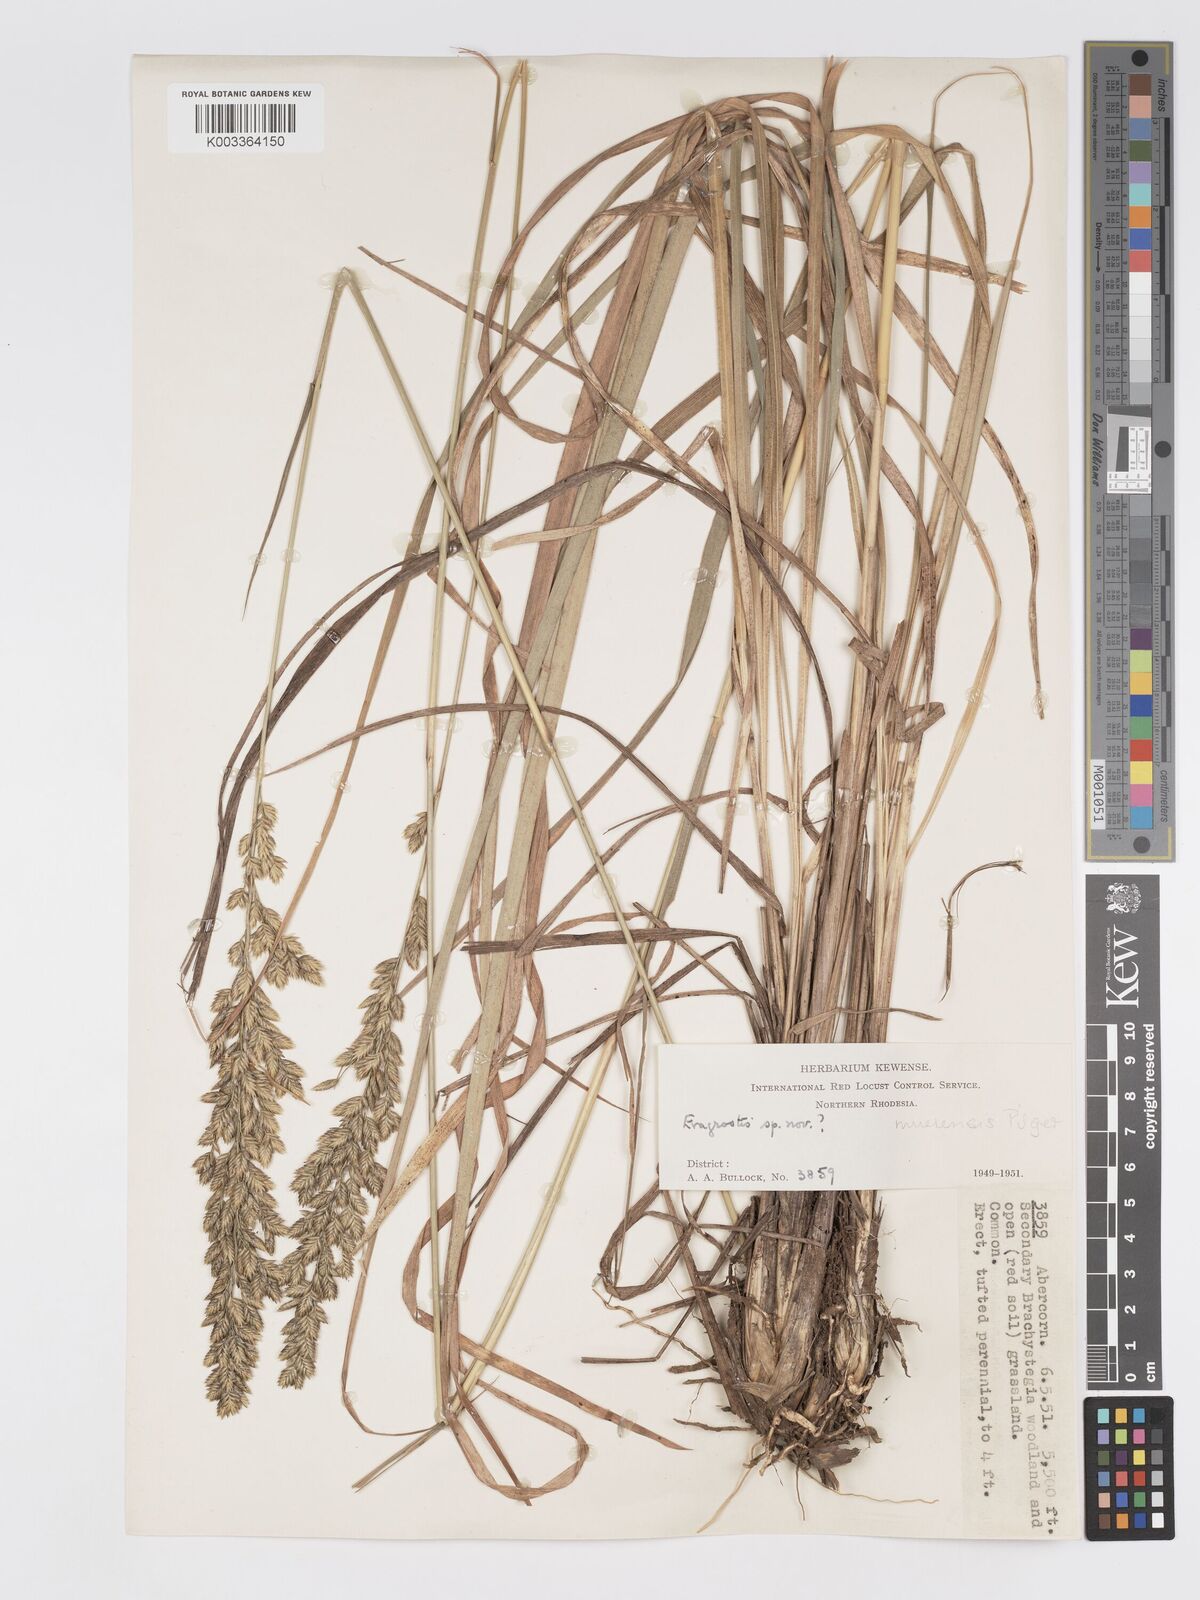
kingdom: Plantae
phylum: Tracheophyta
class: Liliopsida
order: Poales
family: Poaceae
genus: Eragrostis
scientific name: Eragrostis muerensis
